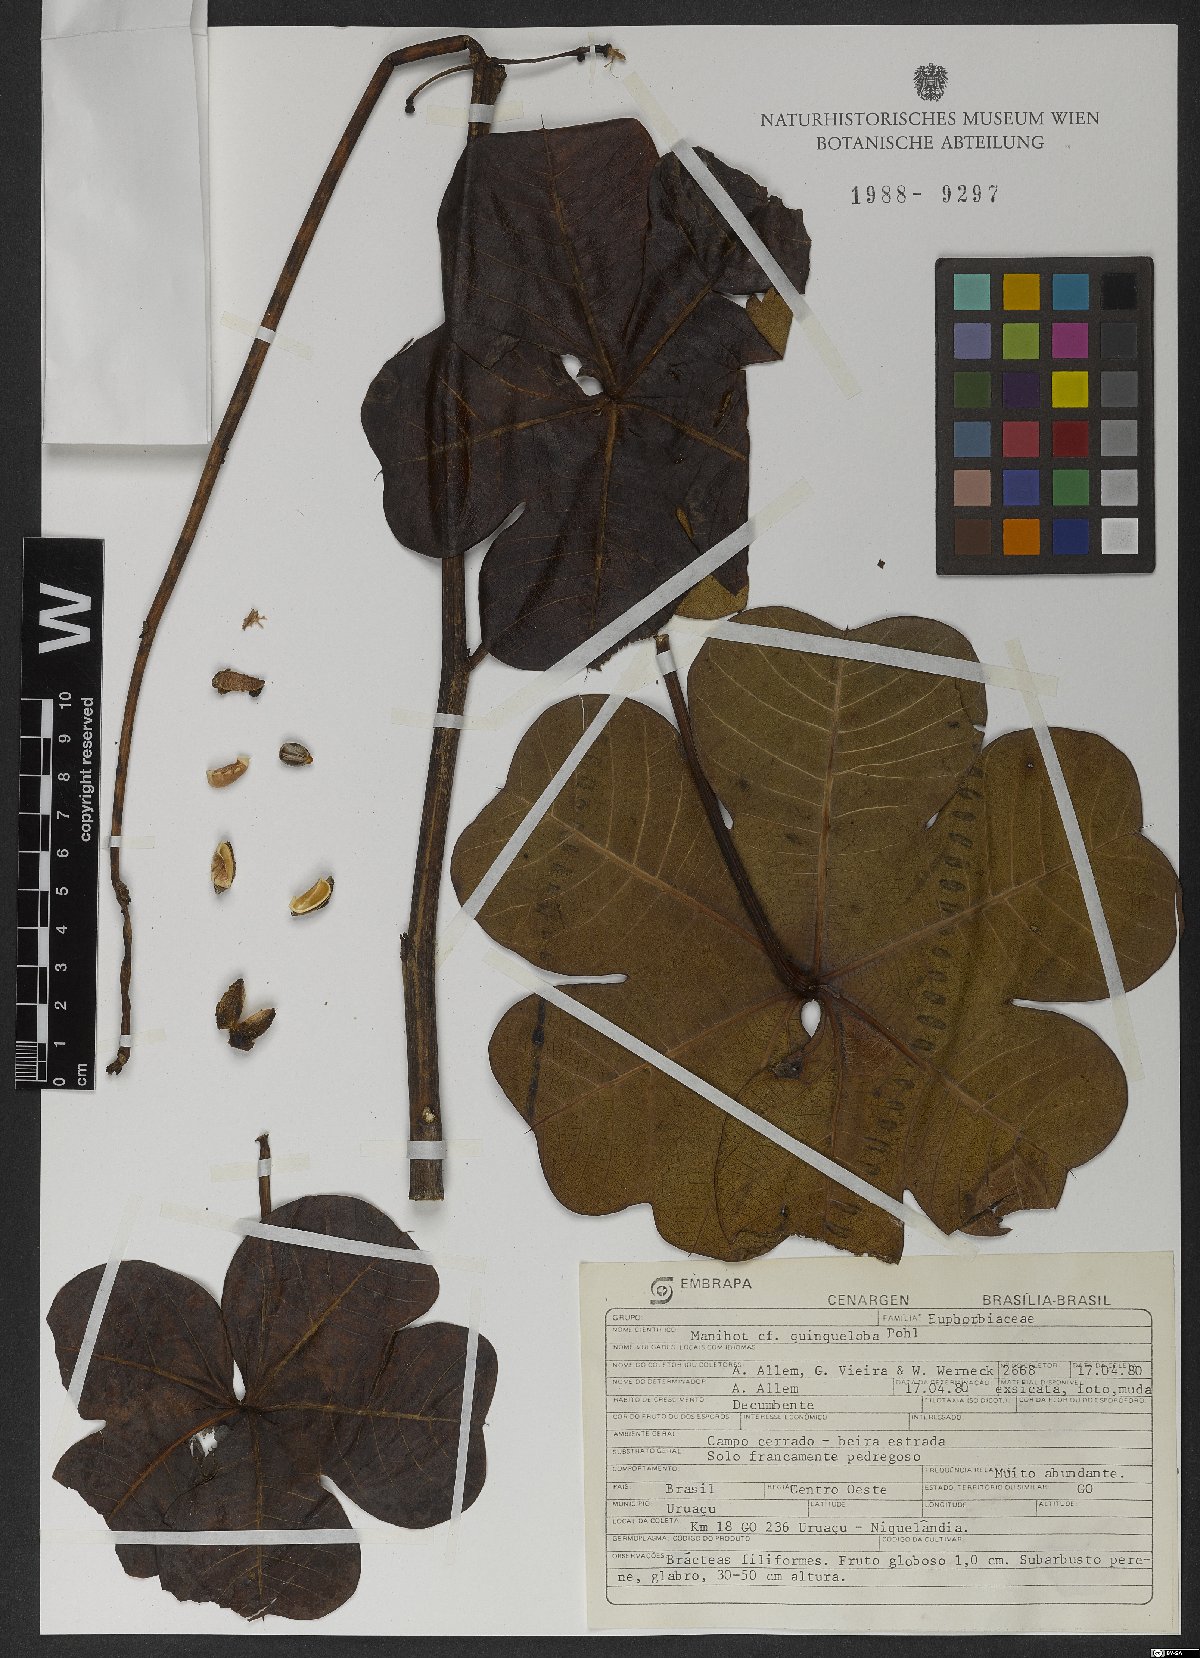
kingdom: Plantae
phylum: Tracheophyta
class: Magnoliopsida
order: Malpighiales
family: Euphorbiaceae
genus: Manihot
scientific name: Manihot quinqueloba
